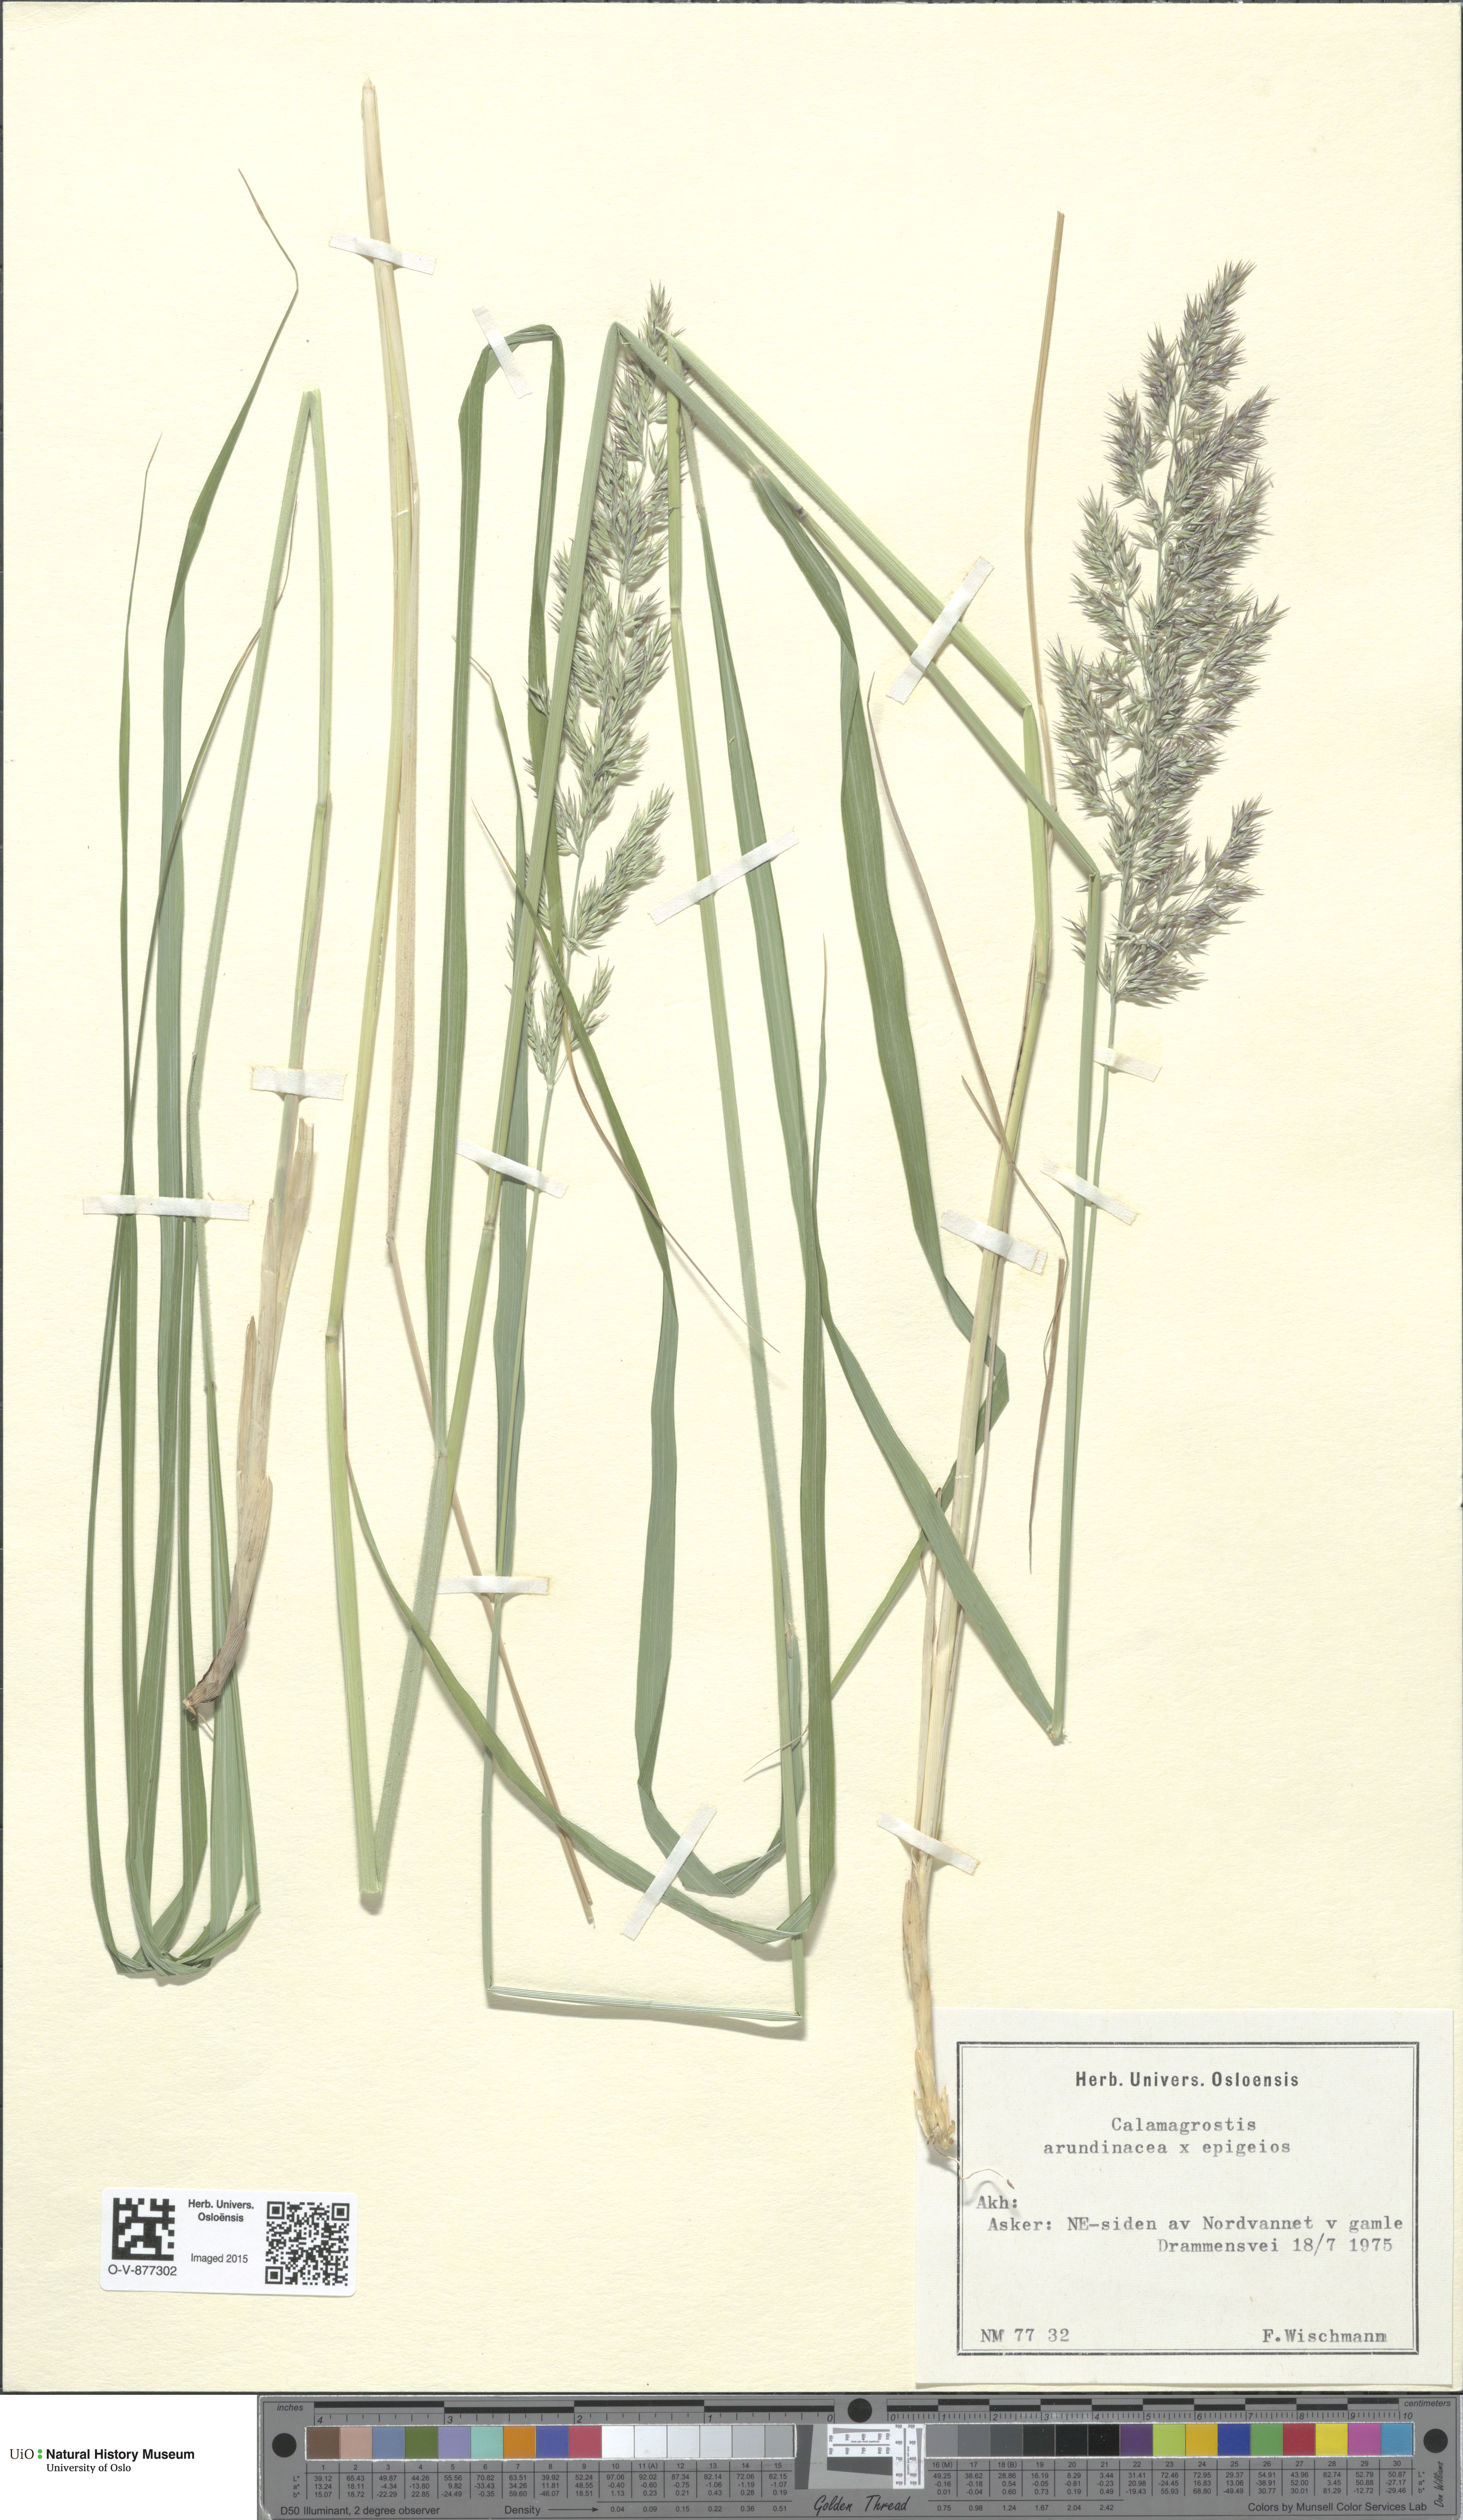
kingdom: Plantae
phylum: Tracheophyta
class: Liliopsida
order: Poales
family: Poaceae
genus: Calamagrostis
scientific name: Calamagrostis
